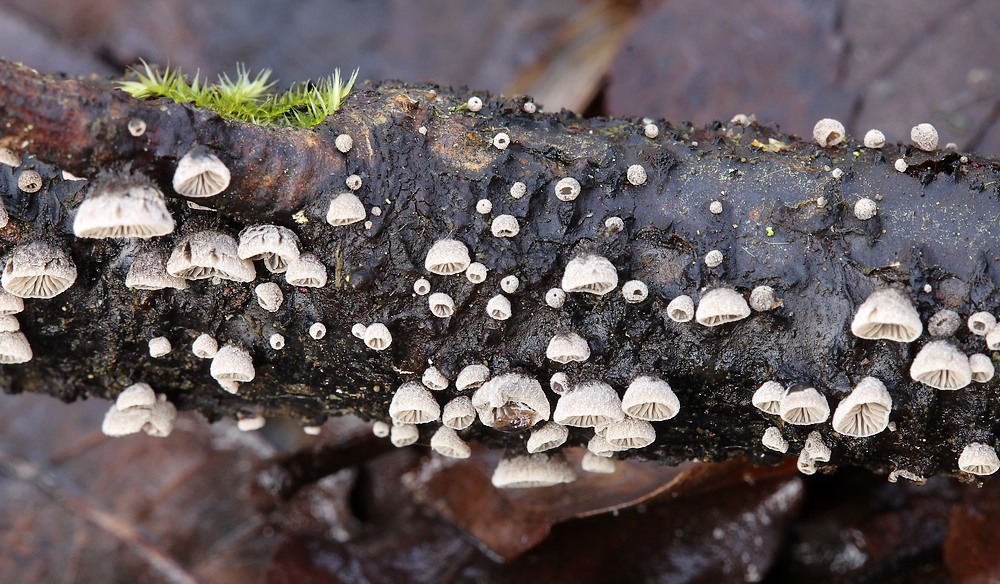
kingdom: Fungi
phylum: Basidiomycota
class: Agaricomycetes
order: Agaricales
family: Pleurotaceae
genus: Resupinatus
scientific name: Resupinatus trichotis
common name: mørkfiltet barkhat
